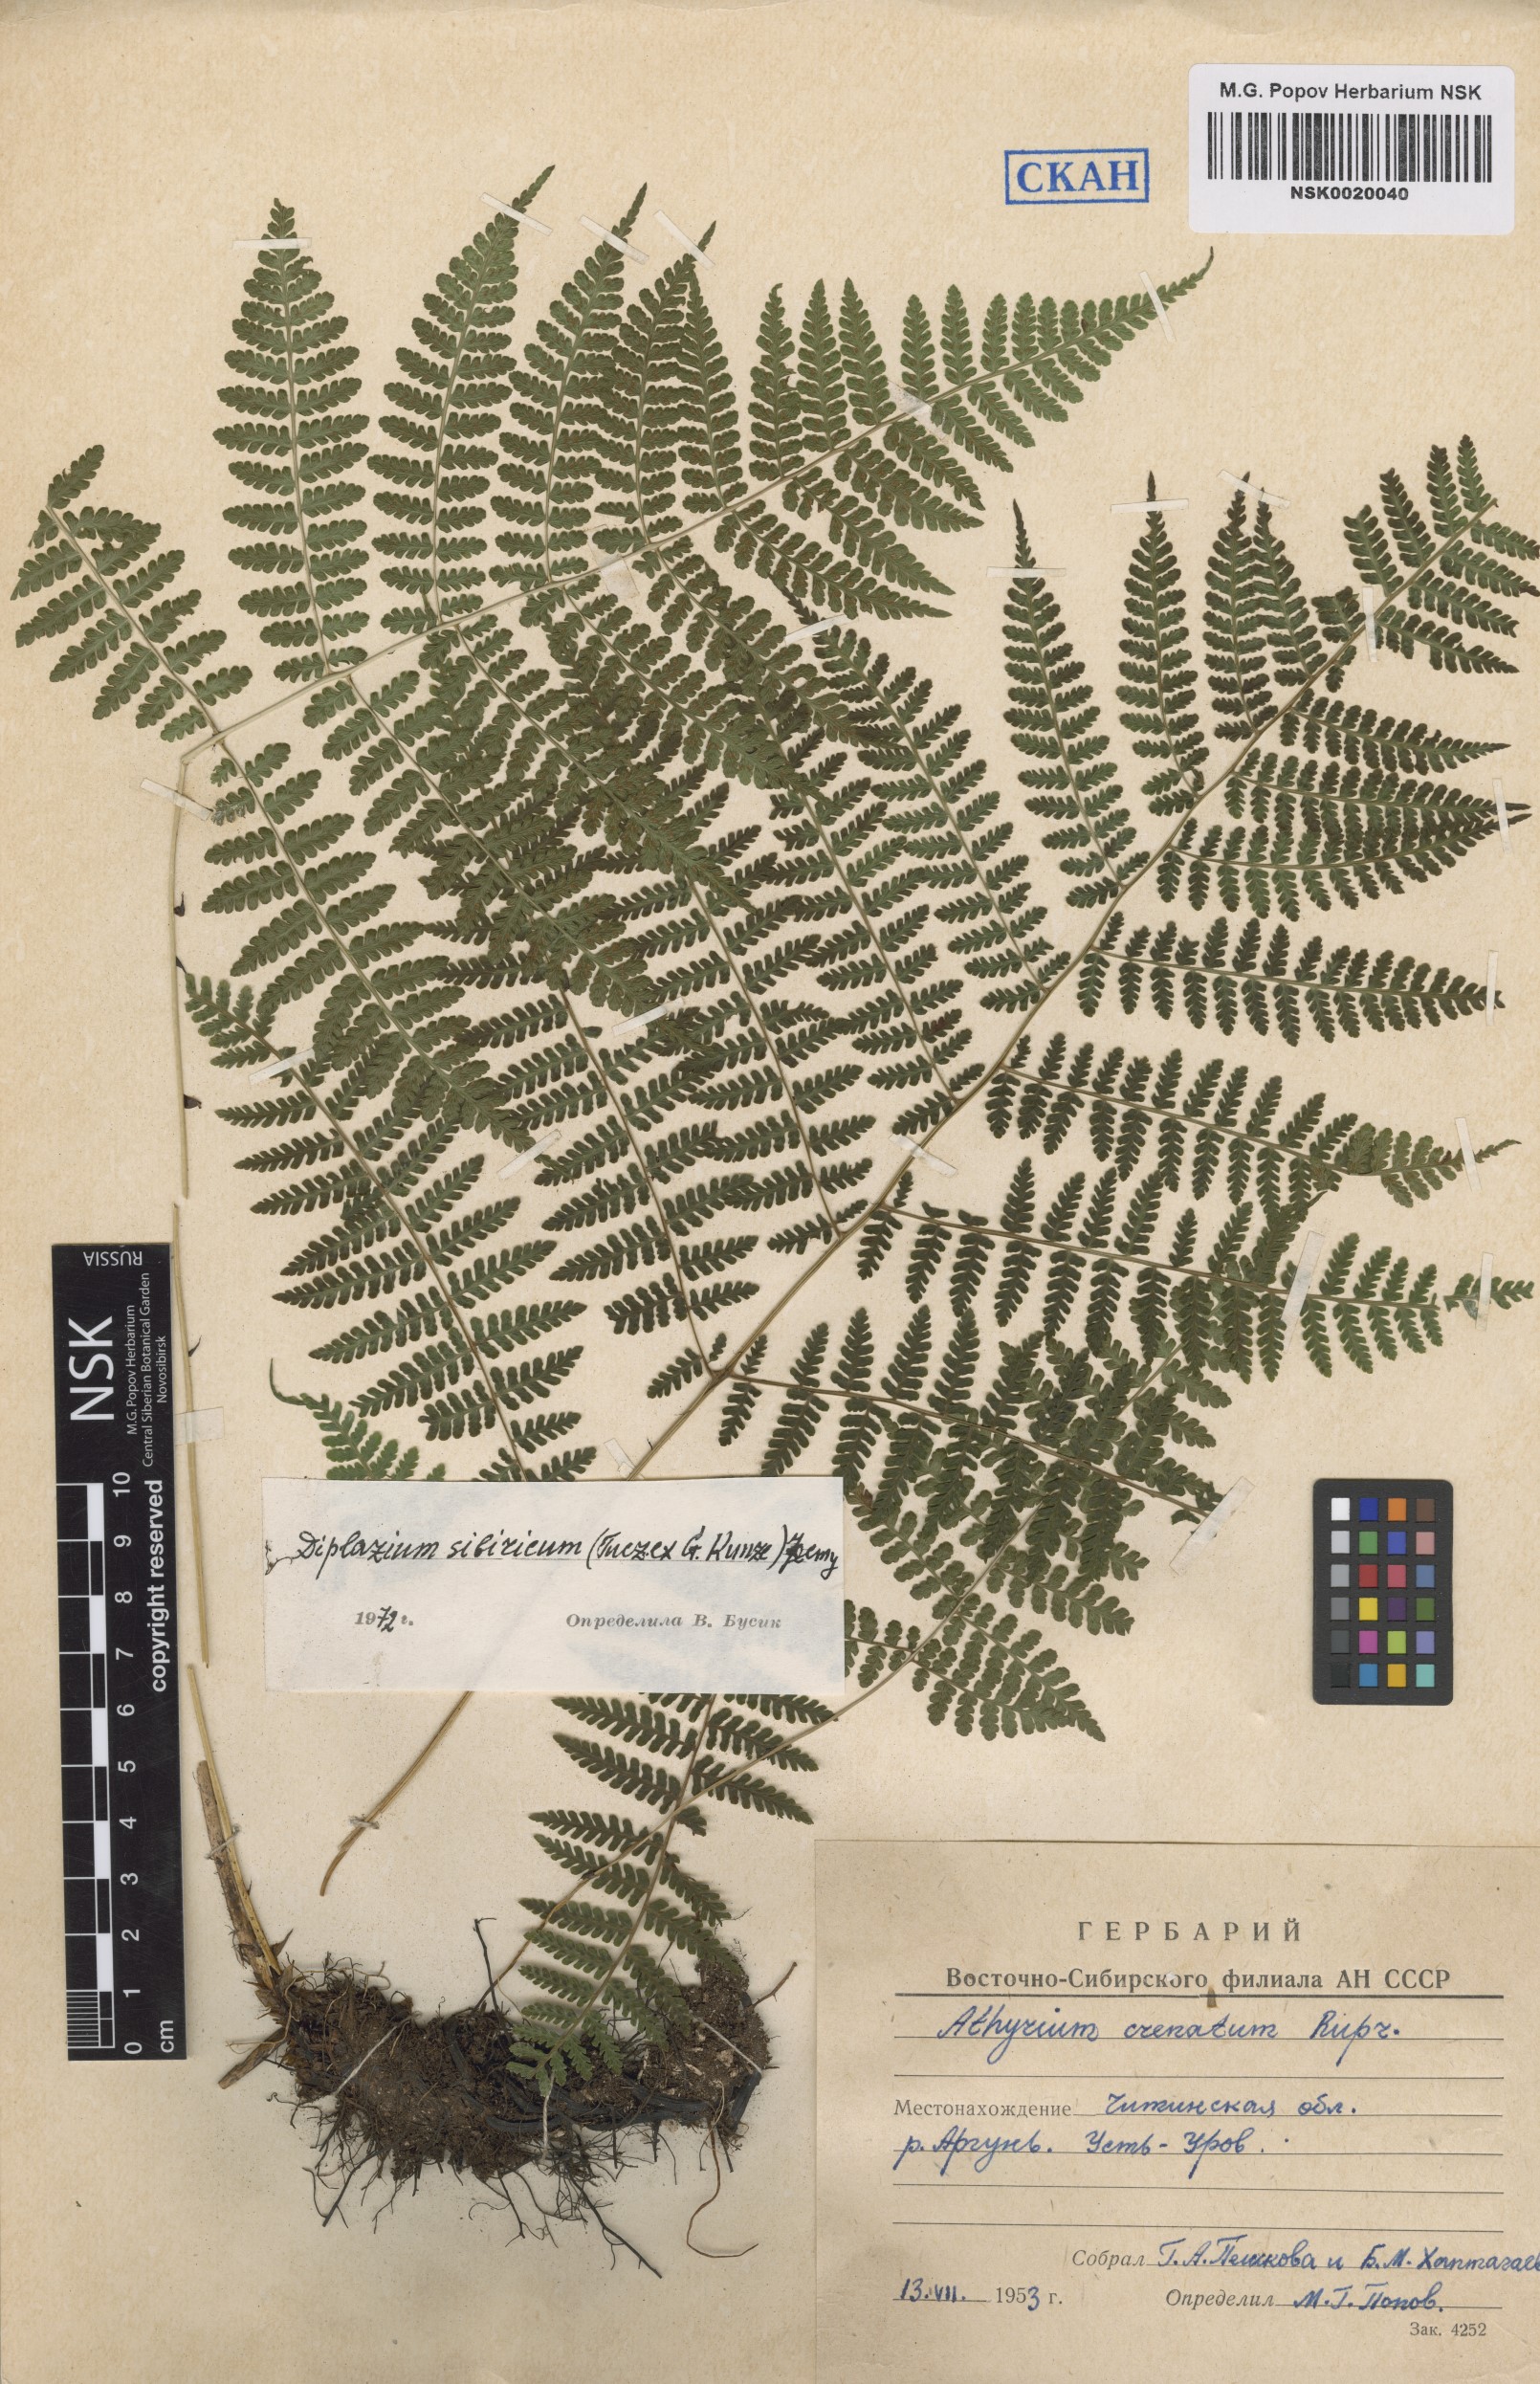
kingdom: Plantae
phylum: Tracheophyta
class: Polypodiopsida
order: Polypodiales
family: Athyriaceae
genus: Diplazium
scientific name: Diplazium sibiricum
